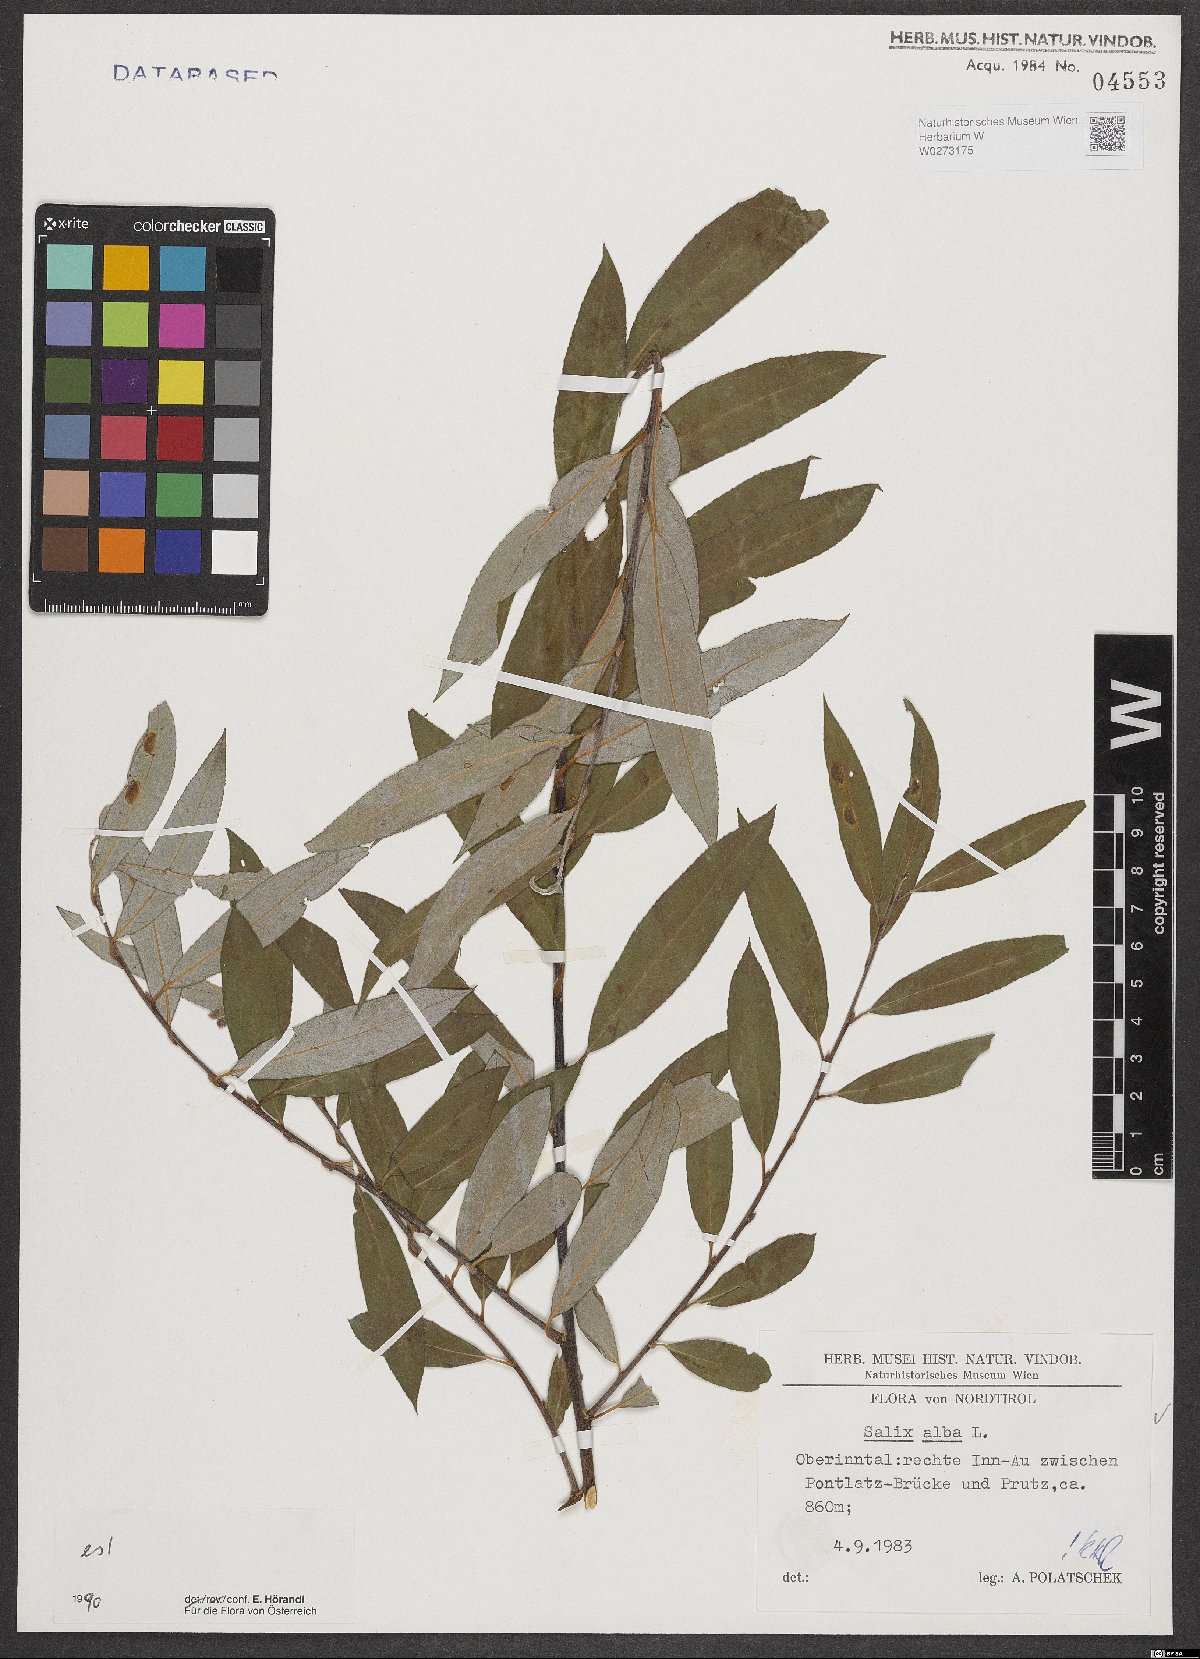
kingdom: Plantae
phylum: Tracheophyta
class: Magnoliopsida
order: Malpighiales
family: Salicaceae
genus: Salix
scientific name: Salix alba
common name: White willow
